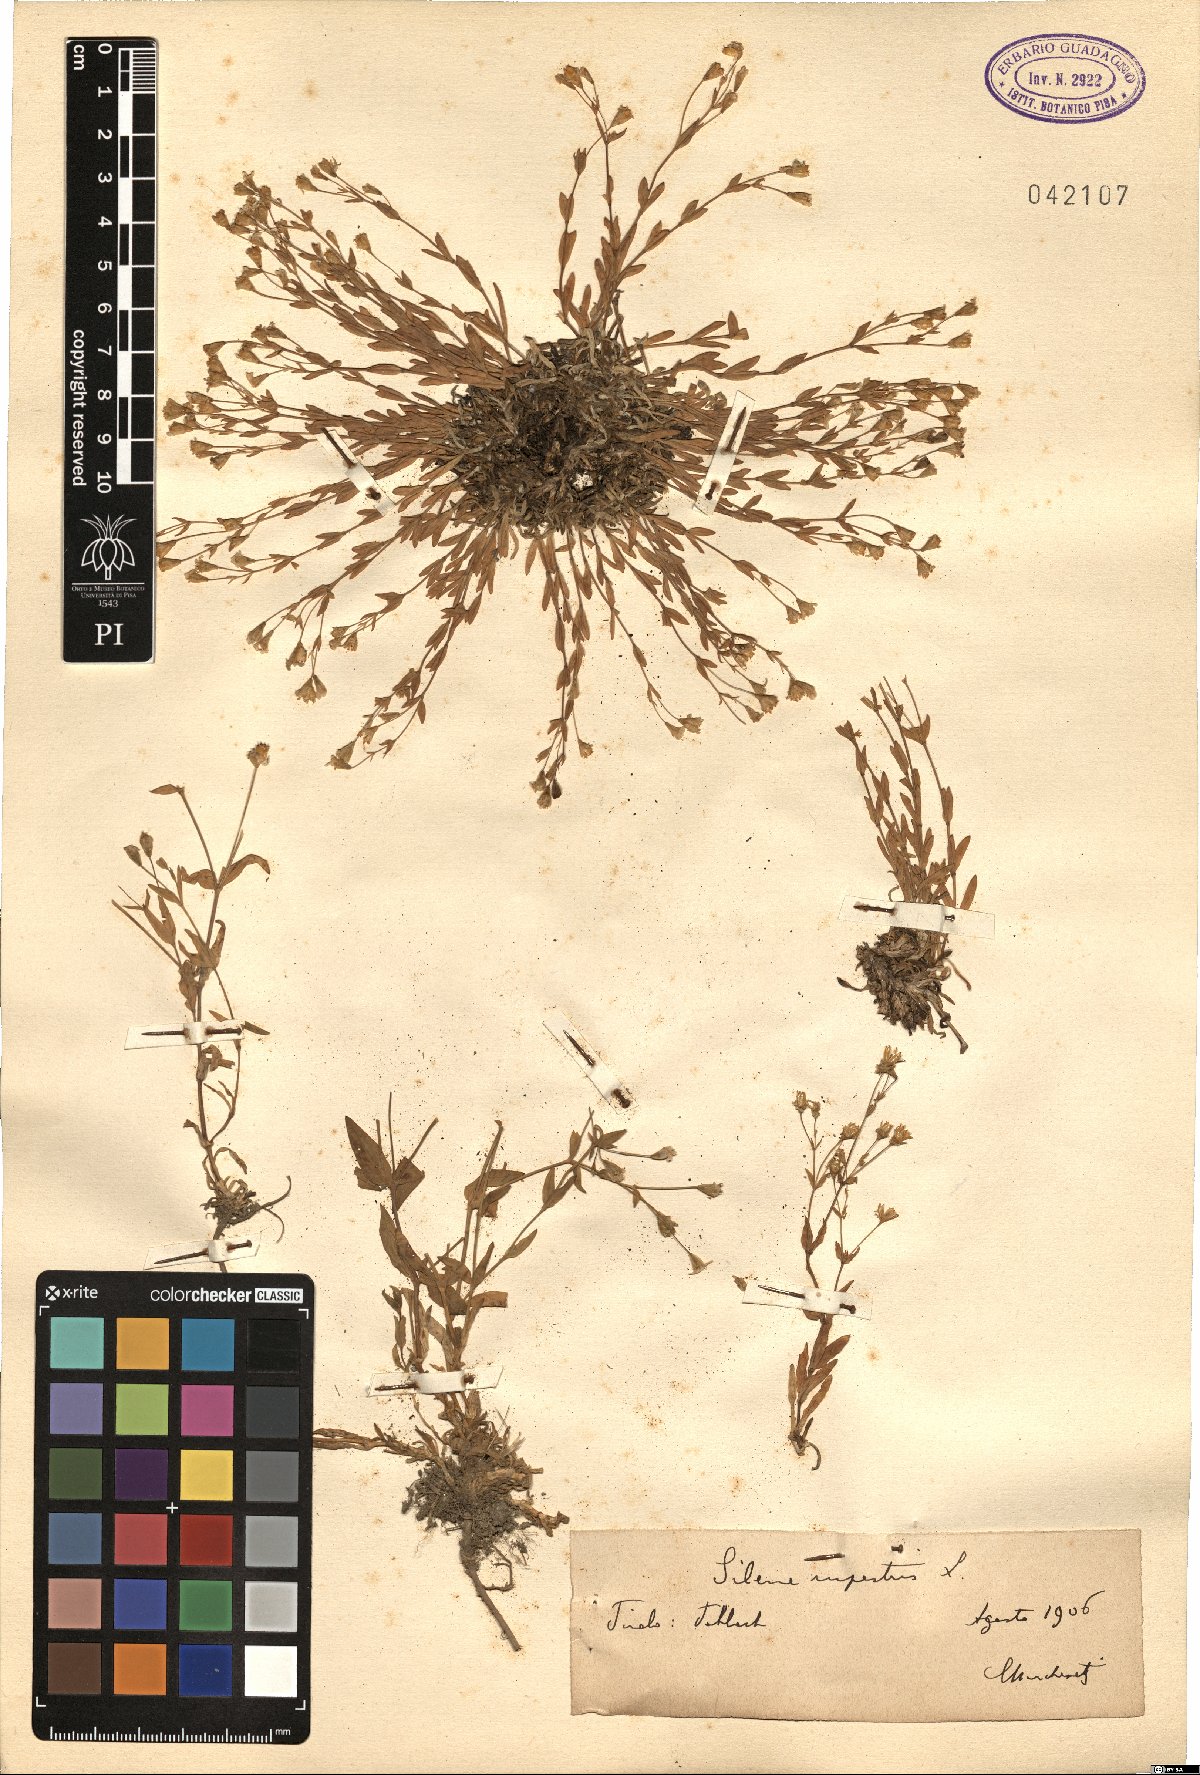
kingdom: Plantae
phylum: Tracheophyta
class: Magnoliopsida
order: Caryophyllales
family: Caryophyllaceae
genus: Atocion
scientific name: Atocion rupestre
